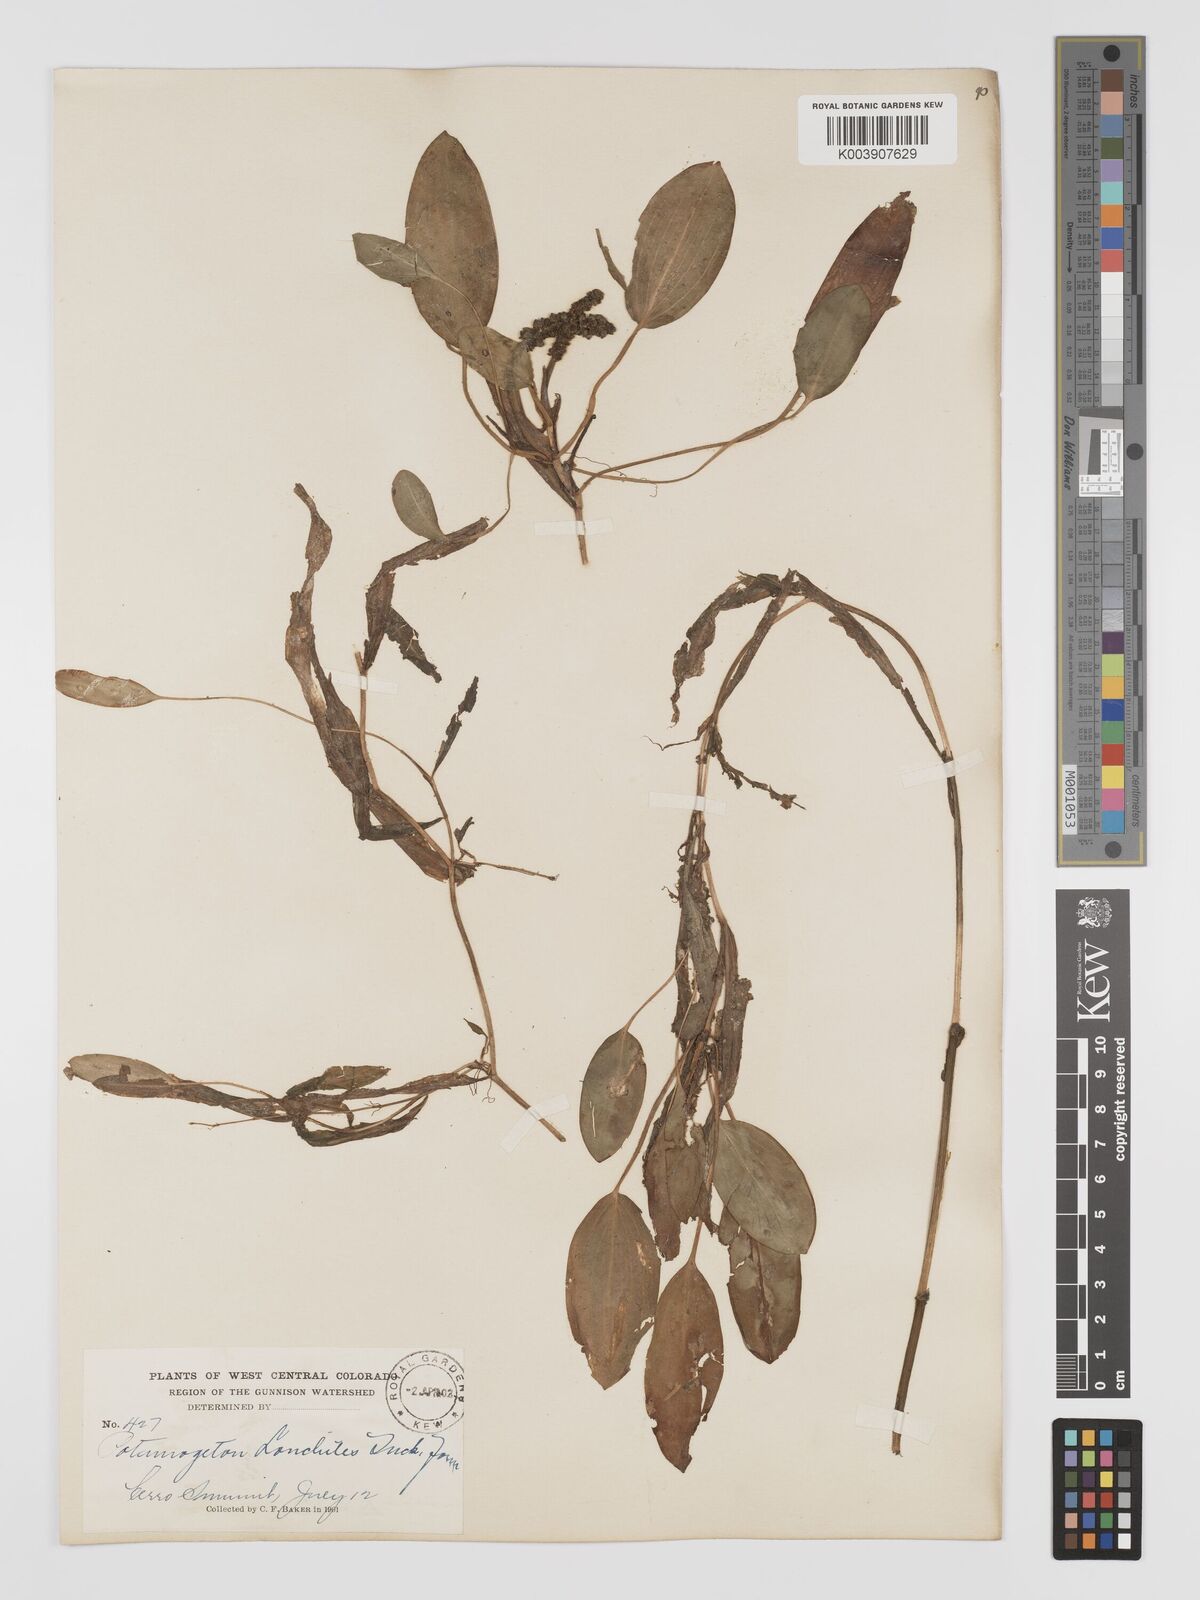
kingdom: Plantae
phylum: Tracheophyta
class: Liliopsida
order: Alismatales
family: Potamogetonaceae
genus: Potamogeton
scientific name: Potamogeton nodosus
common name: Loddon pondweed
